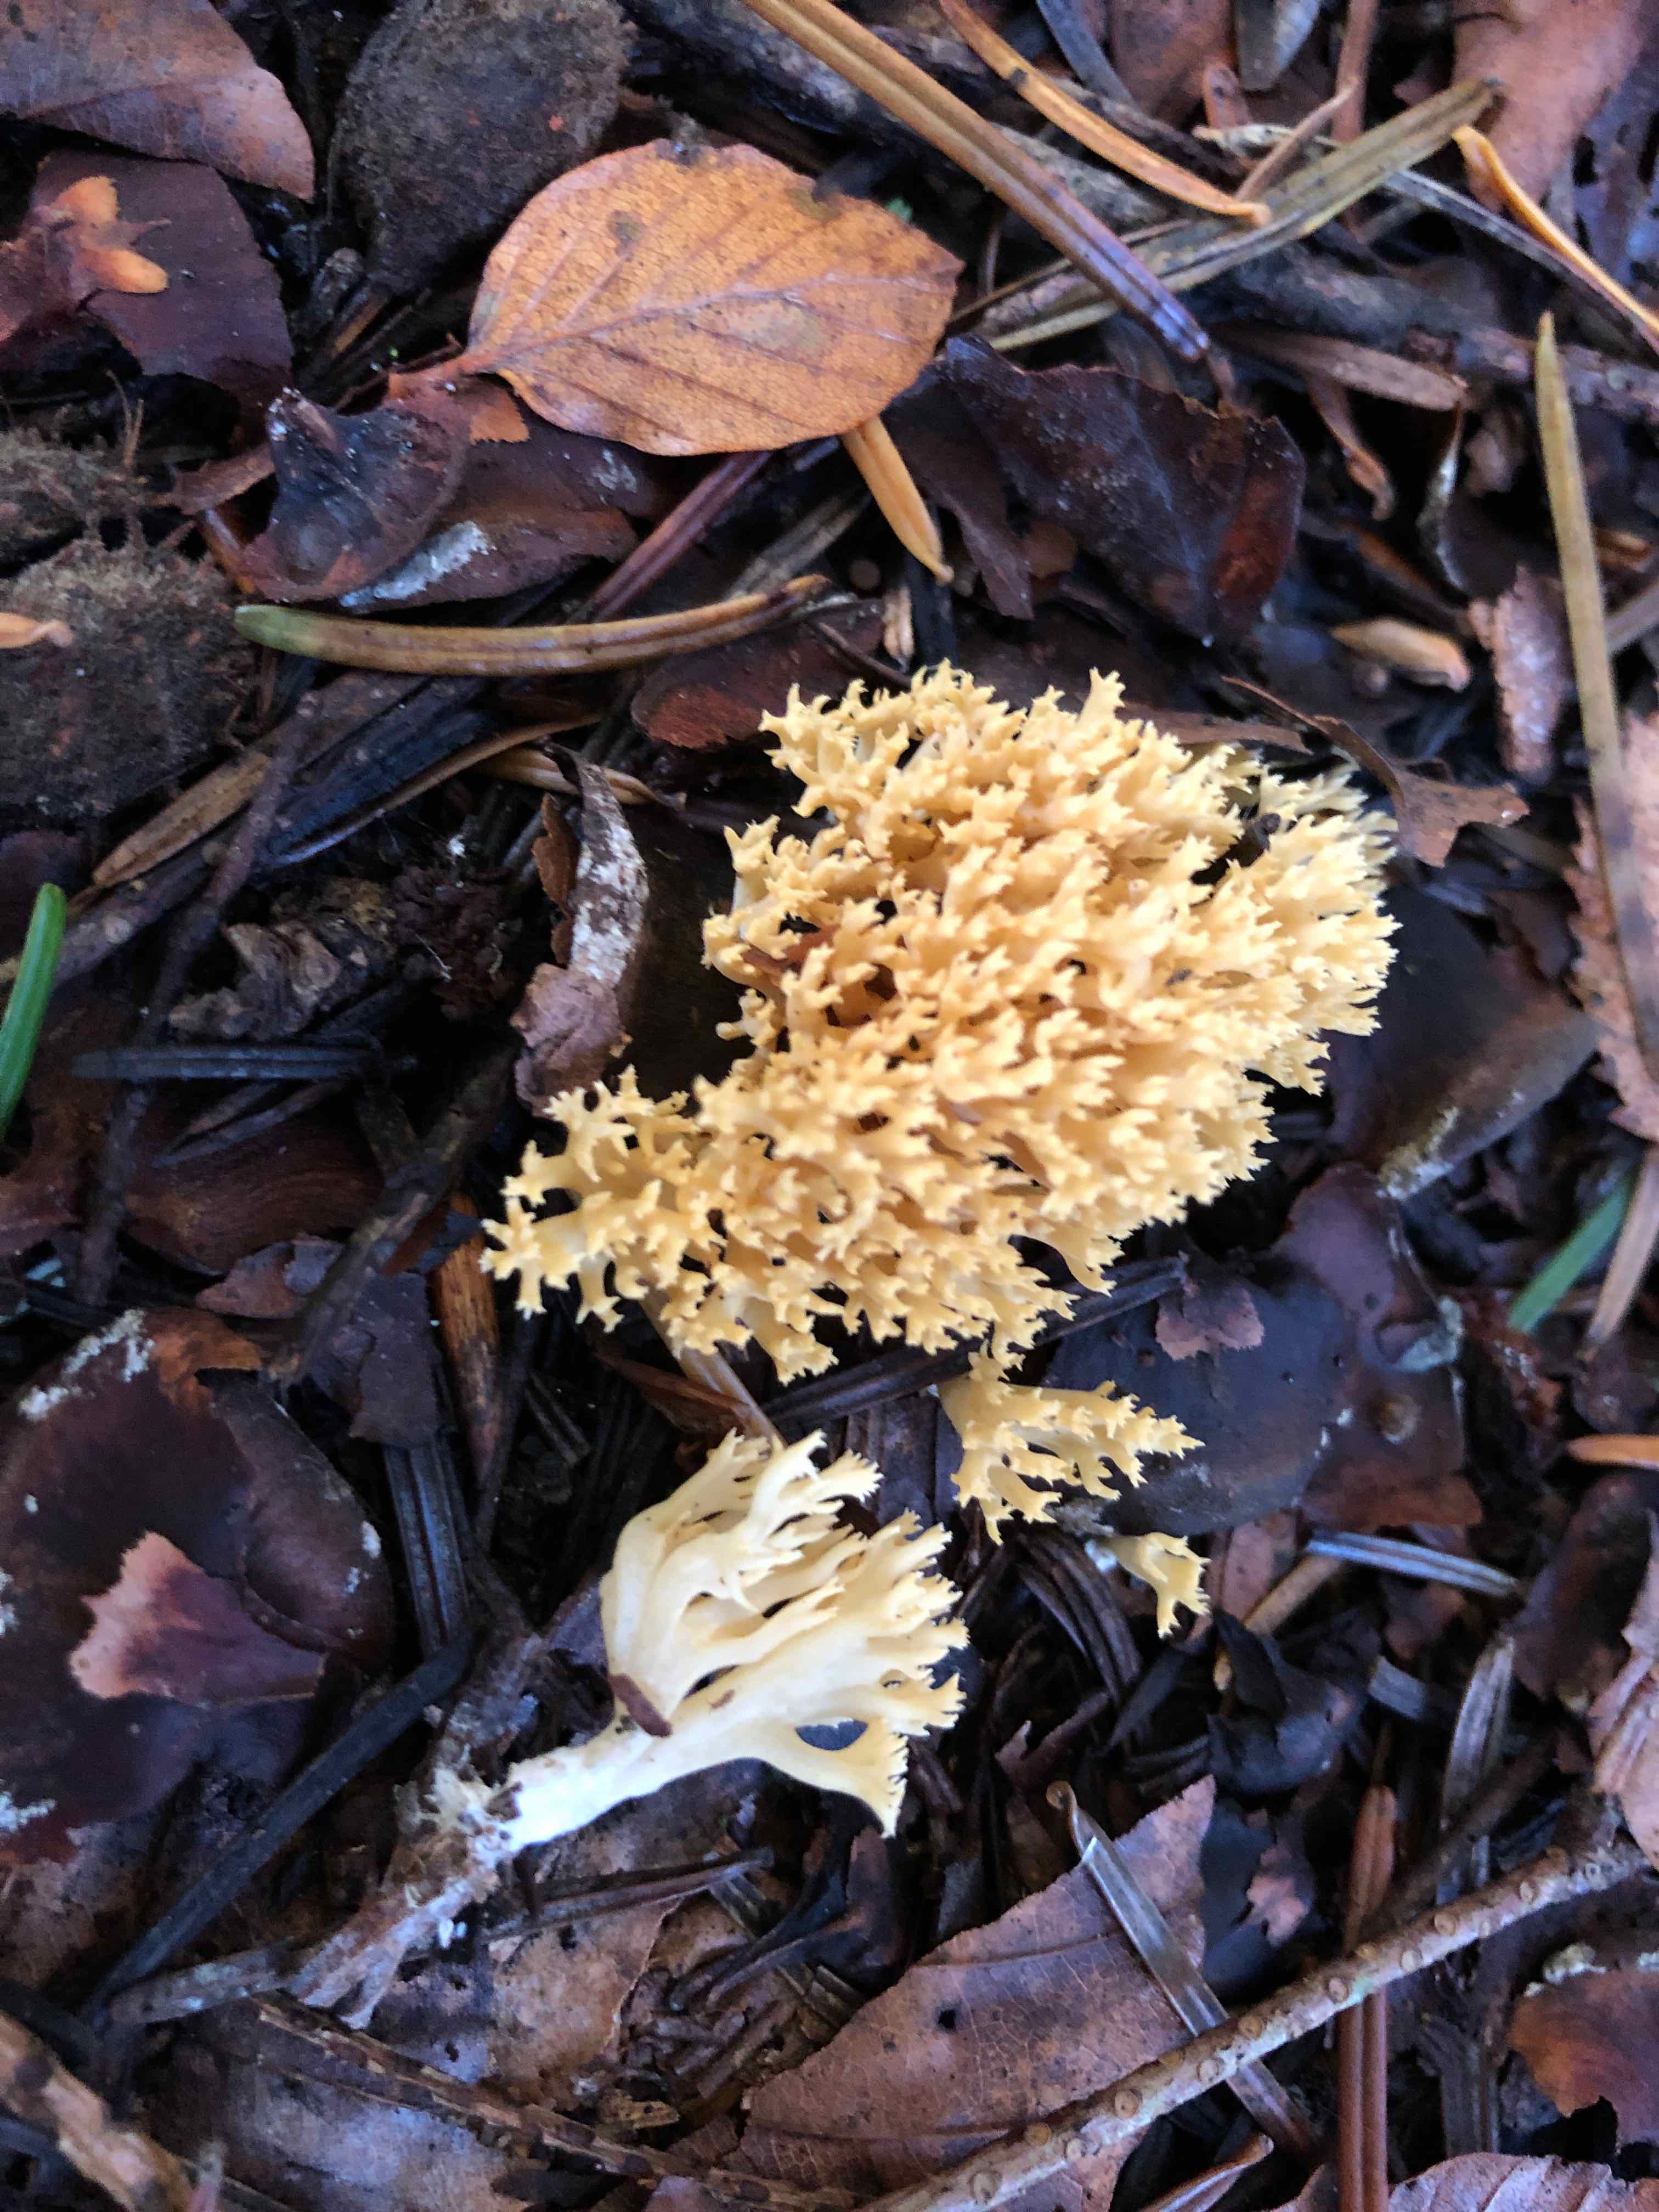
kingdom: Fungi
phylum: Basidiomycota
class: Agaricomycetes
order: Gomphales
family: Gomphaceae
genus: Phaeoclavulina
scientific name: Phaeoclavulina eumorpha
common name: gran-koralsvamp
